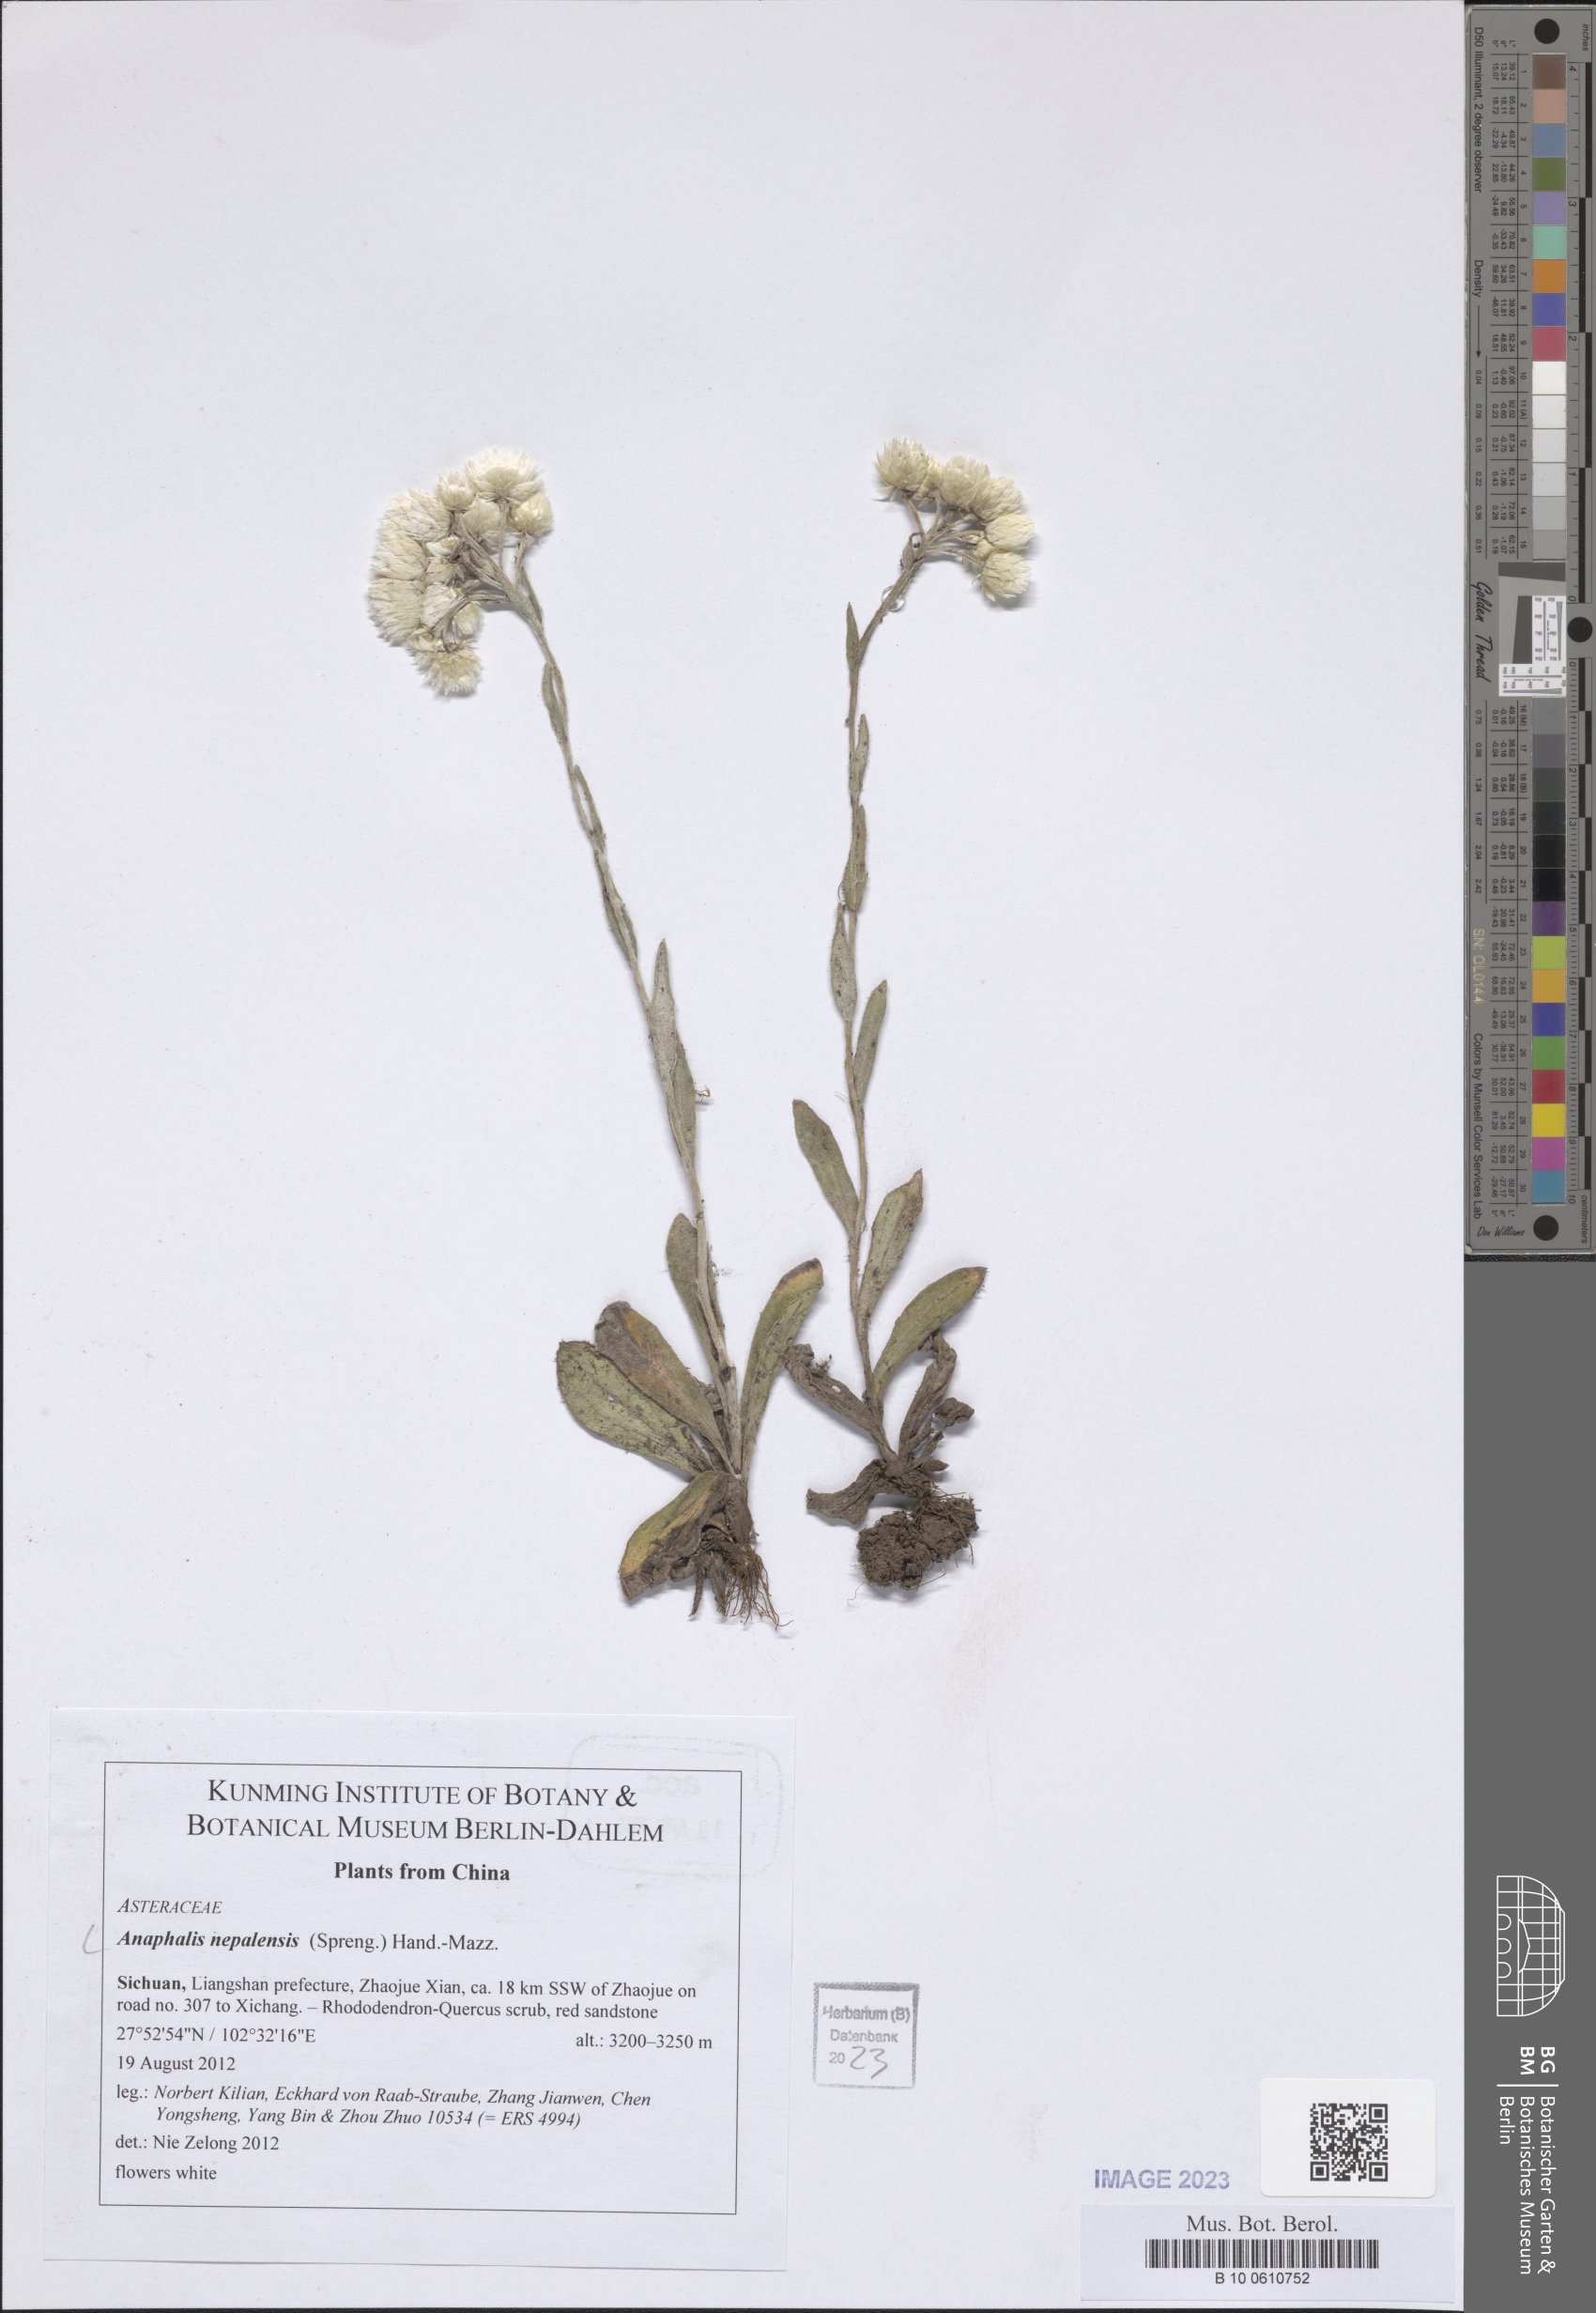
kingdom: Plantae
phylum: Tracheophyta
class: Magnoliopsida
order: Asterales
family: Asteraceae
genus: Anaphalis
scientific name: Anaphalis nepalensis
